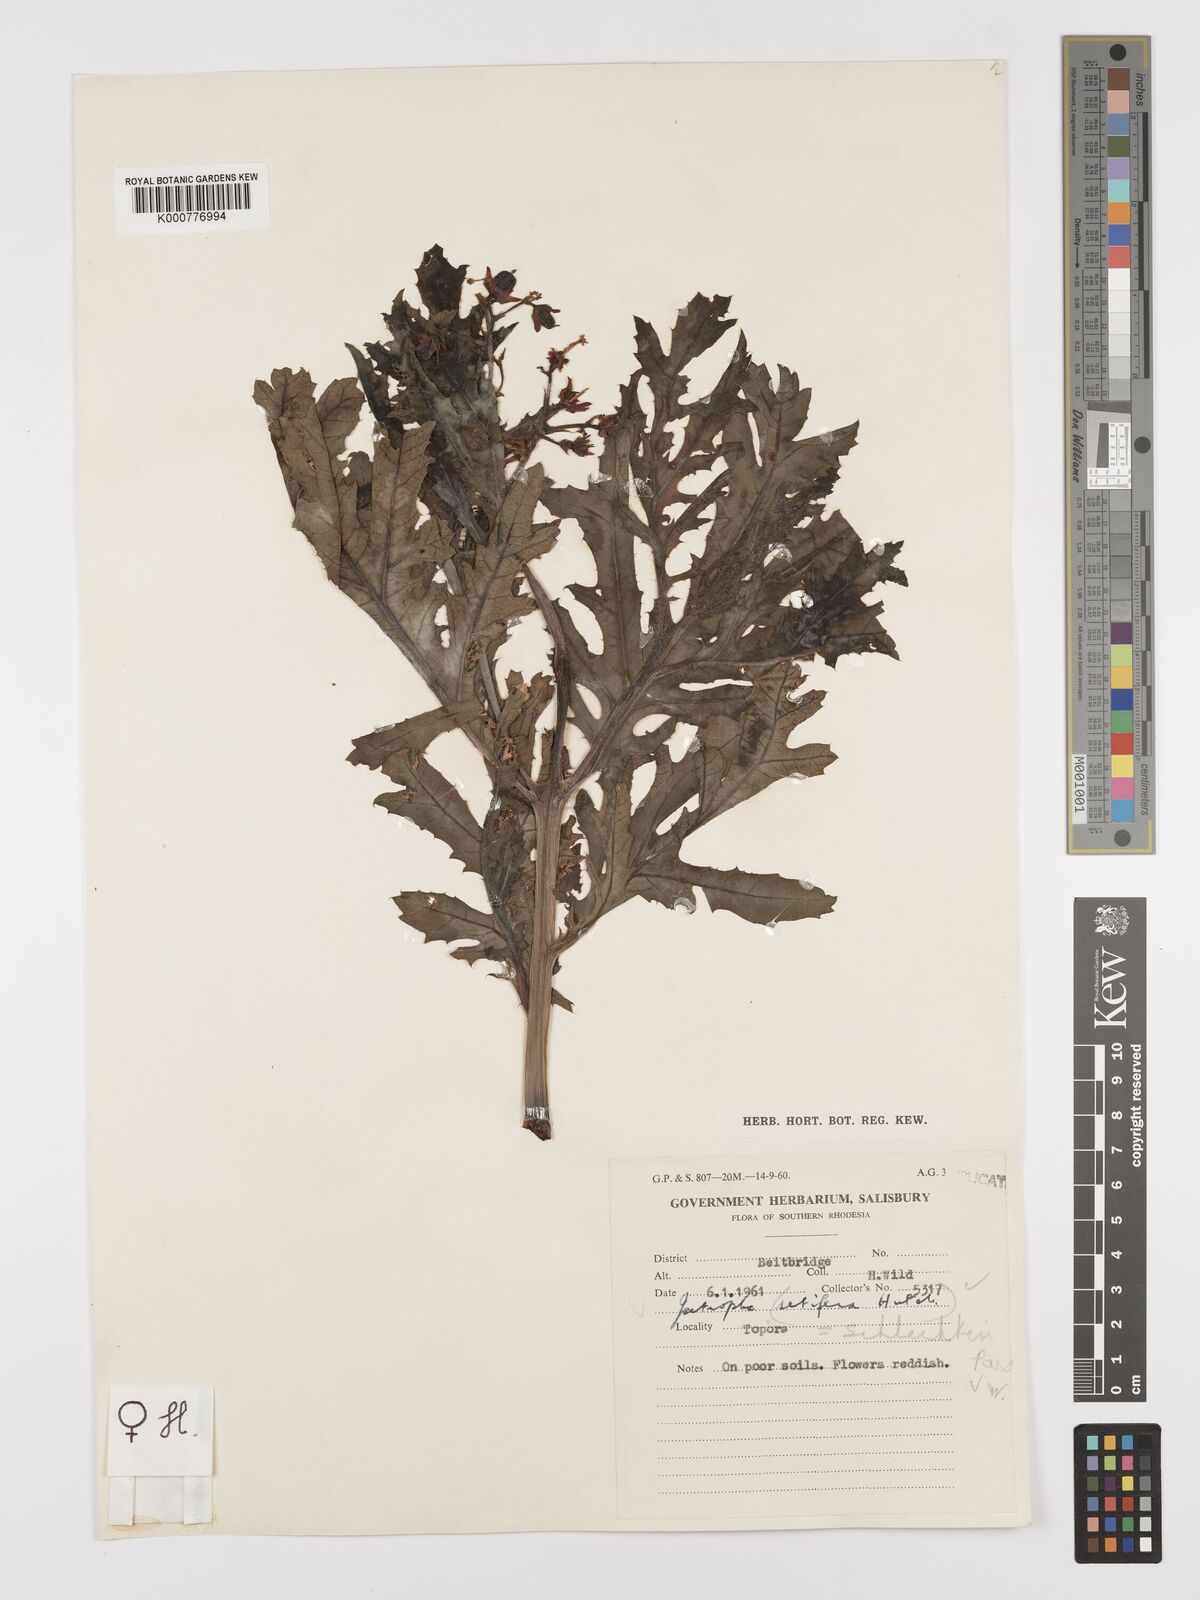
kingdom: Plantae
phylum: Tracheophyta
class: Magnoliopsida
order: Malpighiales
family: Euphorbiaceae
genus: Jatropha
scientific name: Jatropha schlechteri
